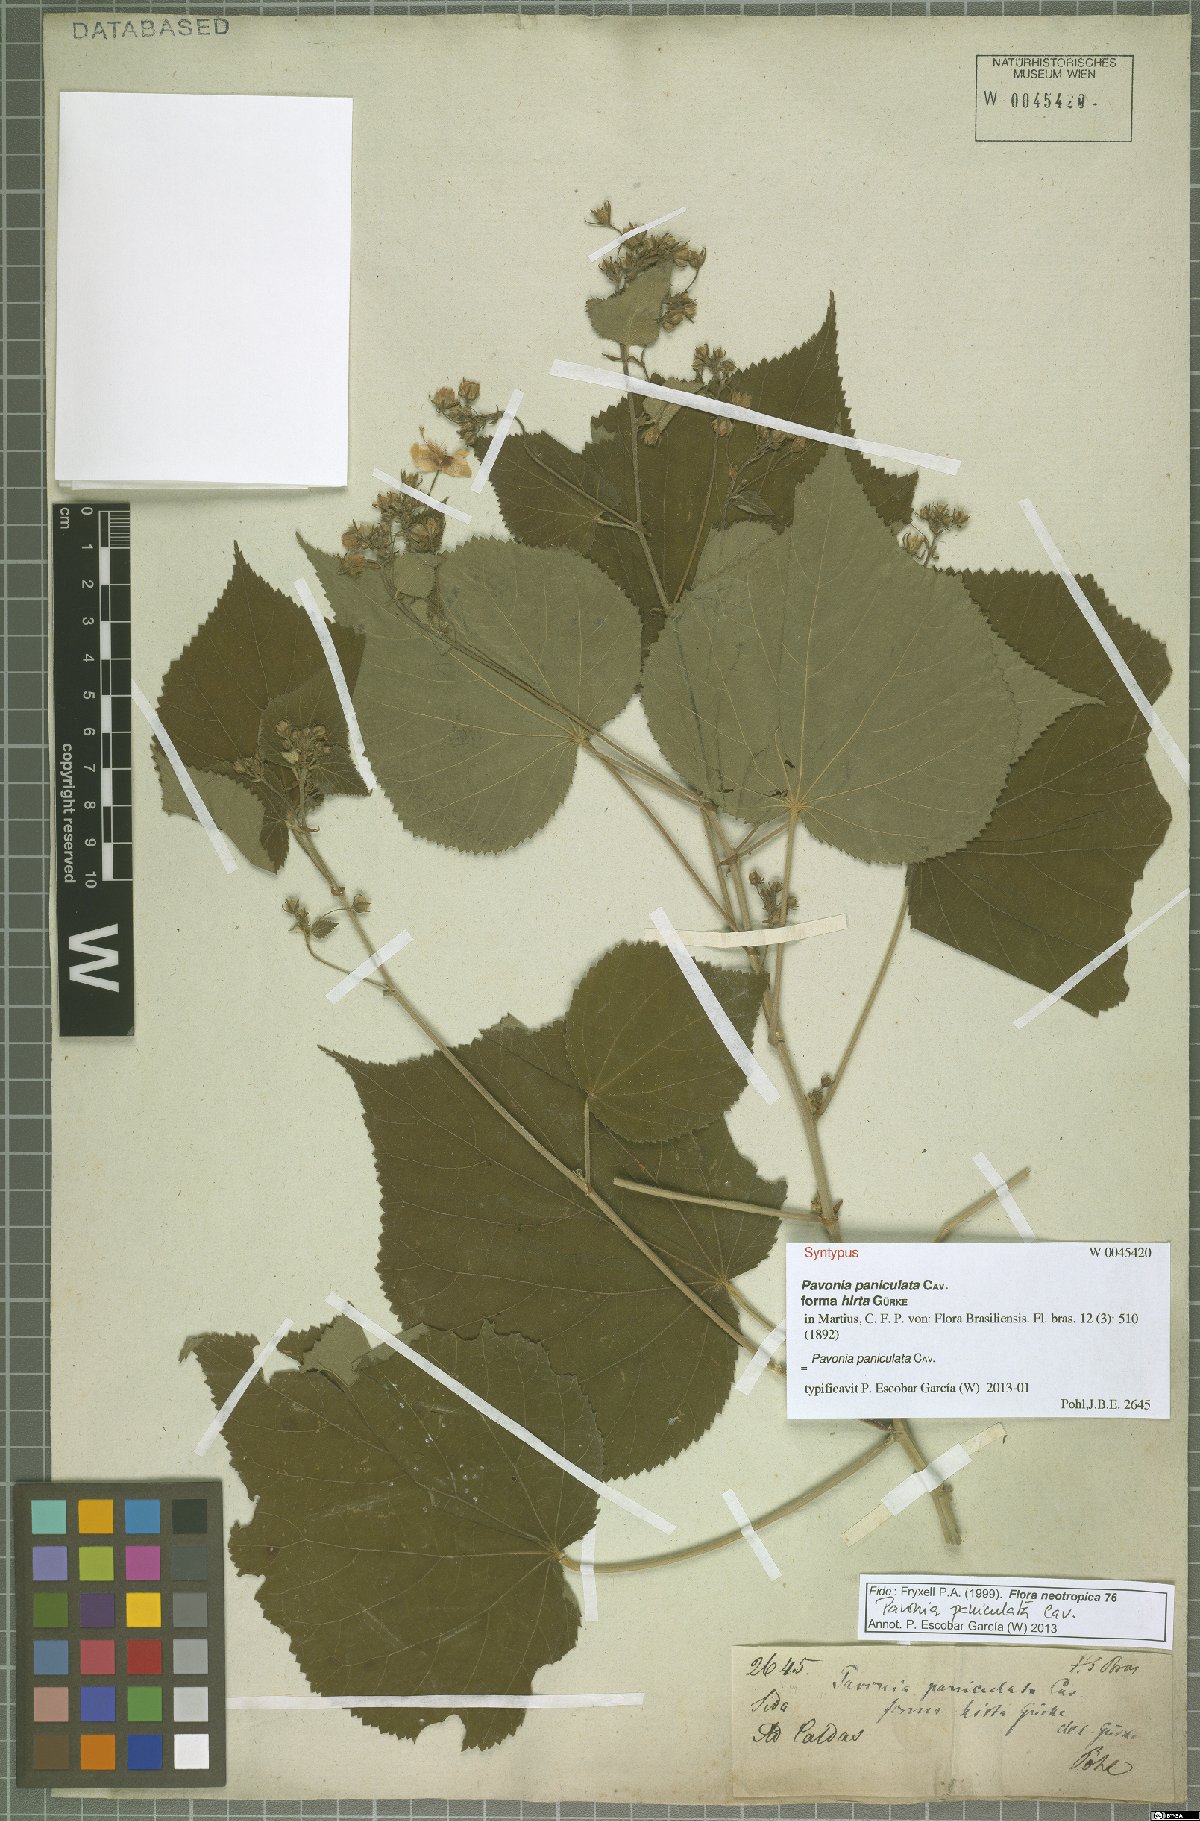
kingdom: Plantae
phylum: Tracheophyta
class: Magnoliopsida
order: Malvales
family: Malvaceae
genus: Pavonia
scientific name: Pavonia paniculata
